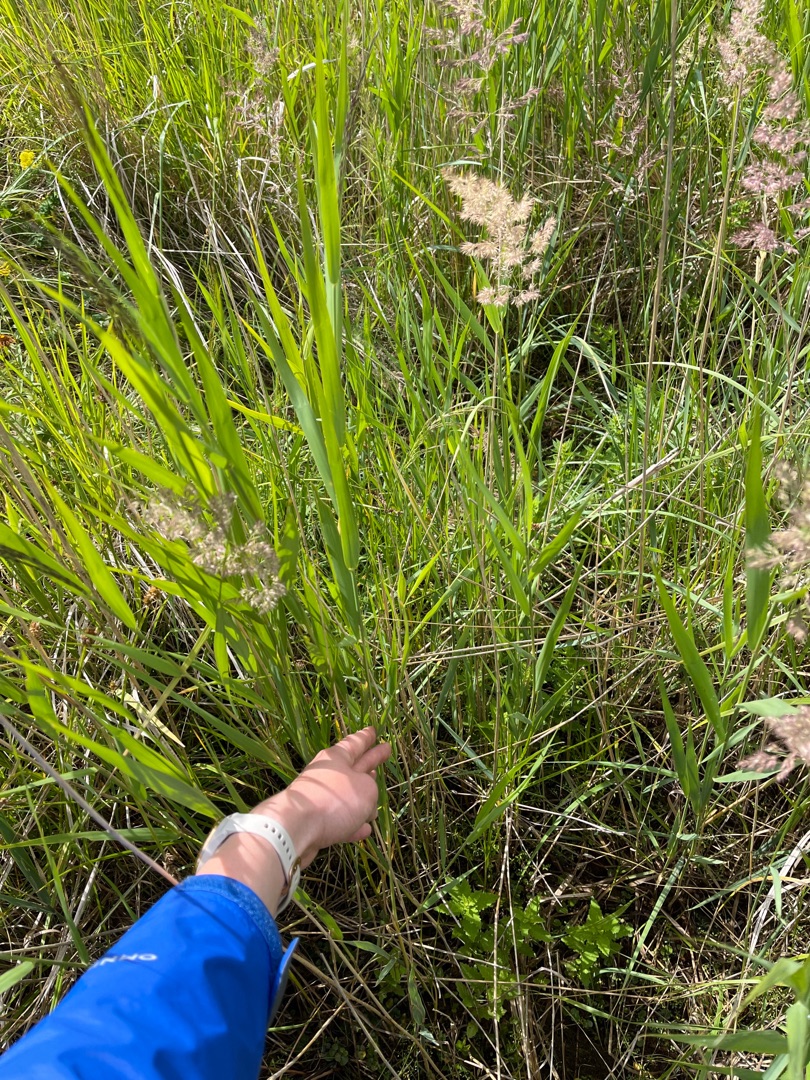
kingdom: Plantae
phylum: Tracheophyta
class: Liliopsida
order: Poales
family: Poaceae
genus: Phragmites
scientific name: Phragmites australis
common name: Tagrør
